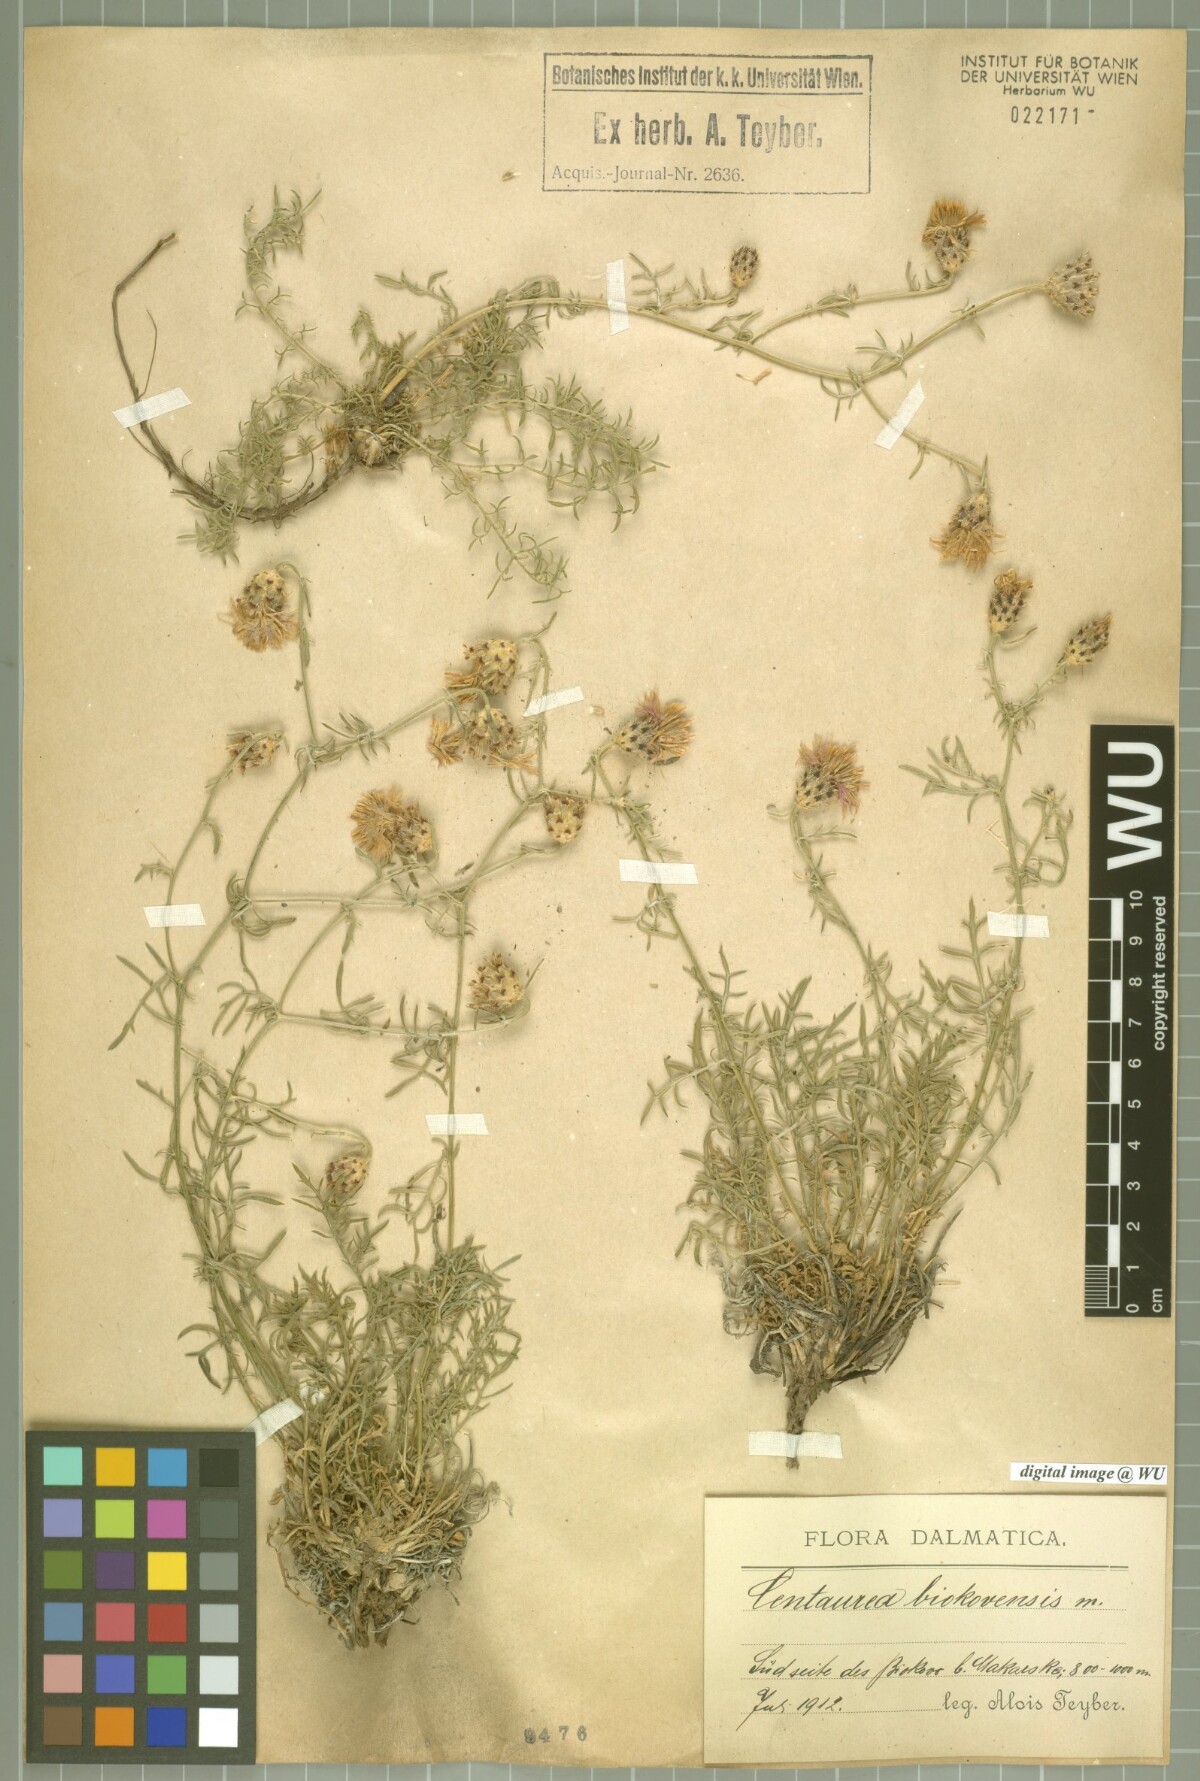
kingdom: Plantae
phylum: Tracheophyta
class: Magnoliopsida
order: Asterales
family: Asteraceae
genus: Centaurea
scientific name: Centaurea biokovensis
